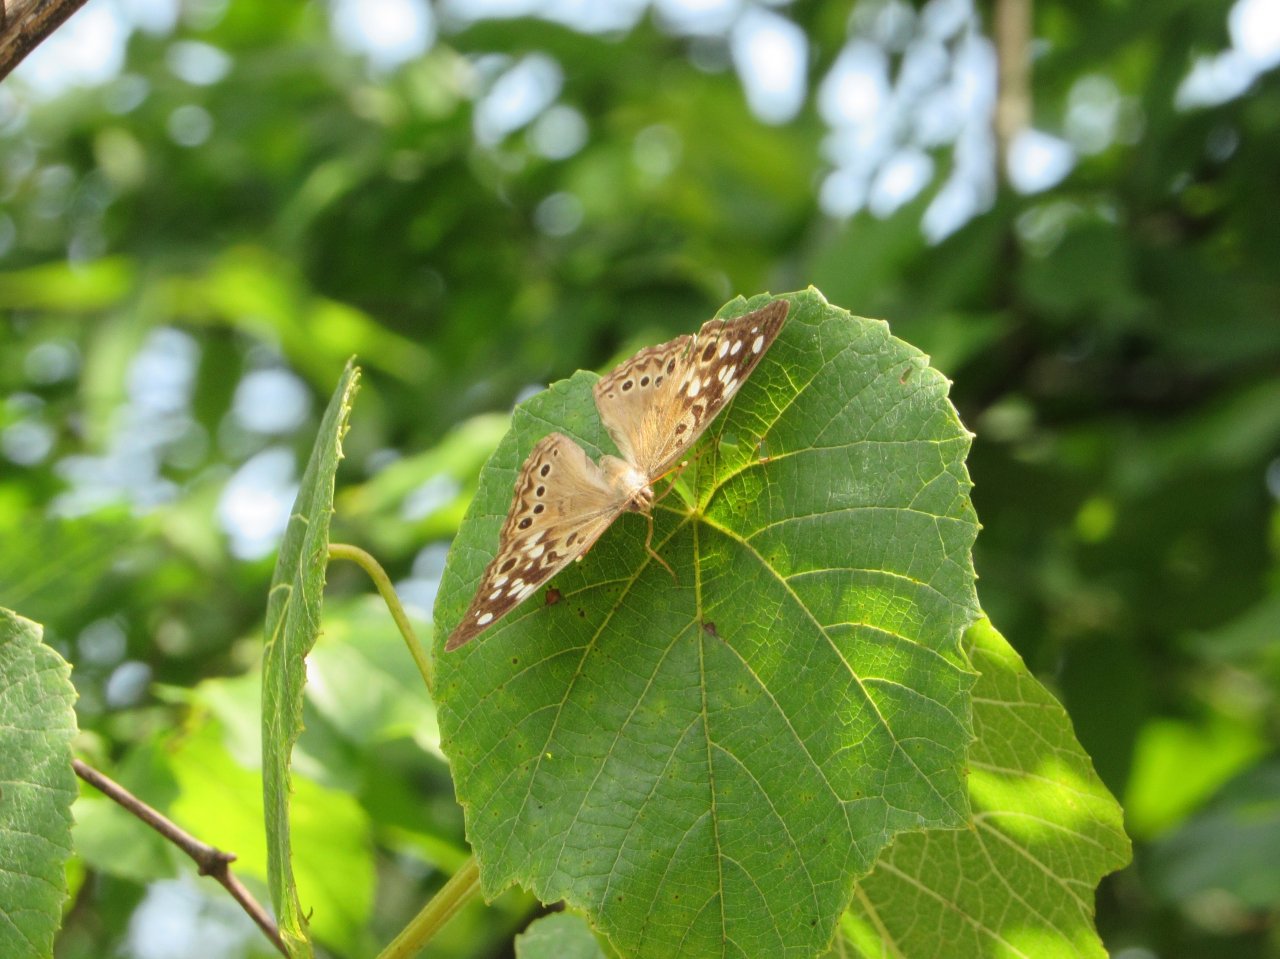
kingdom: Animalia
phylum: Arthropoda
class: Insecta
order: Lepidoptera
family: Nymphalidae
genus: Asterocampa
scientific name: Asterocampa celtis
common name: Hackberry Emperor
